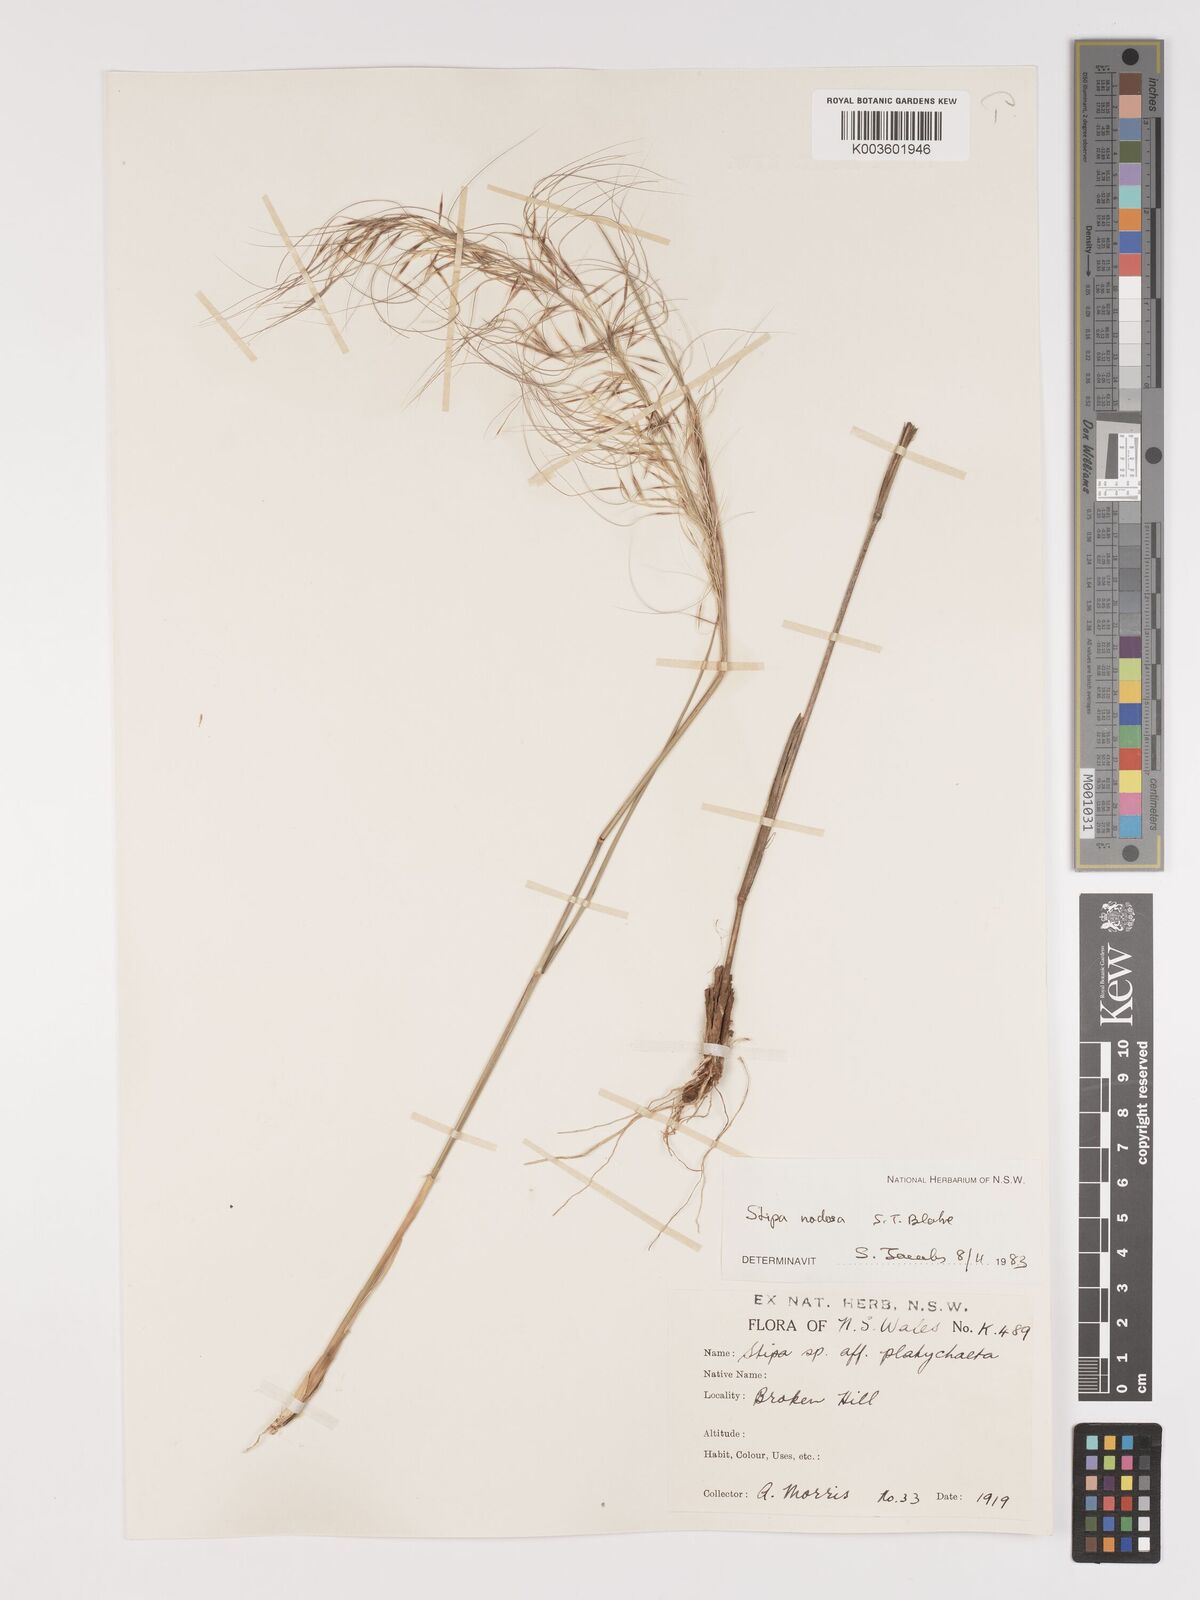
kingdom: Plantae
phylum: Tracheophyta
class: Liliopsida
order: Poales
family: Poaceae
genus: Austrostipa
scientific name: Austrostipa nodosa
